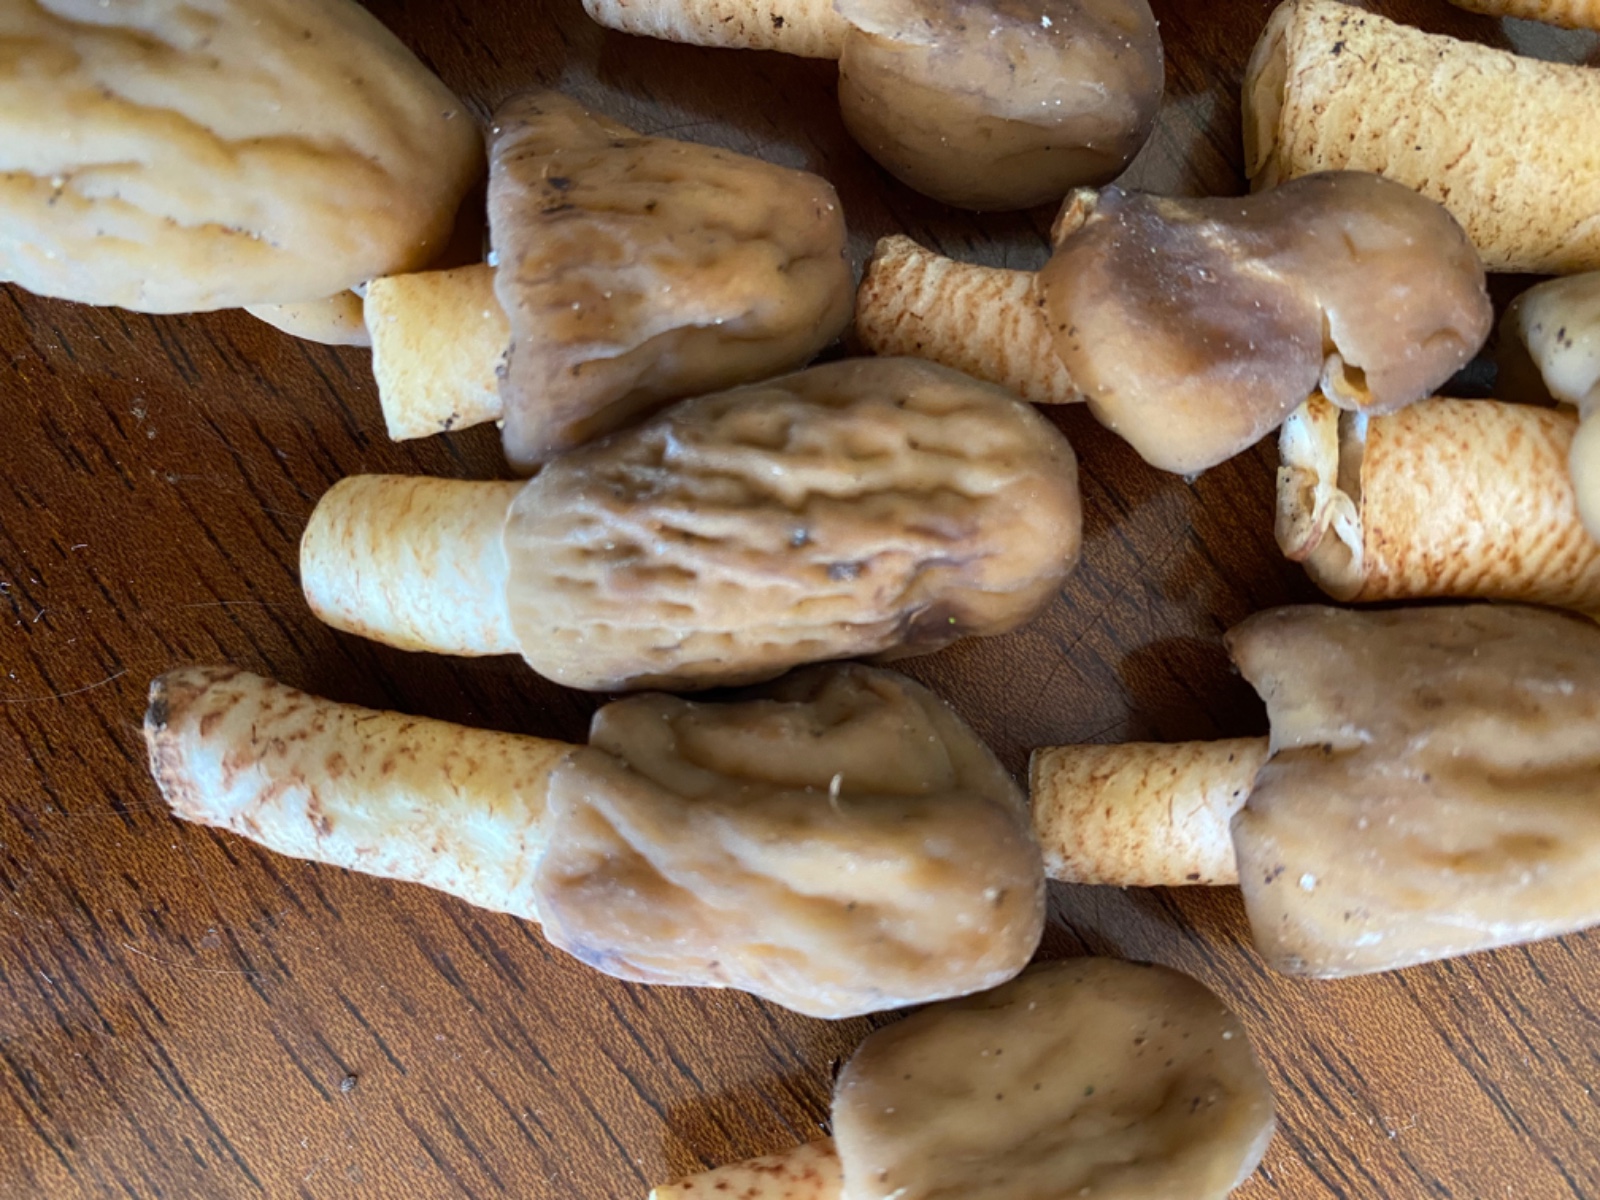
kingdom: Fungi
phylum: Ascomycota
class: Pezizomycetes
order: Pezizales
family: Morchellaceae
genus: Verpa
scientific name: Verpa conica
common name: glat klokkemorkel
